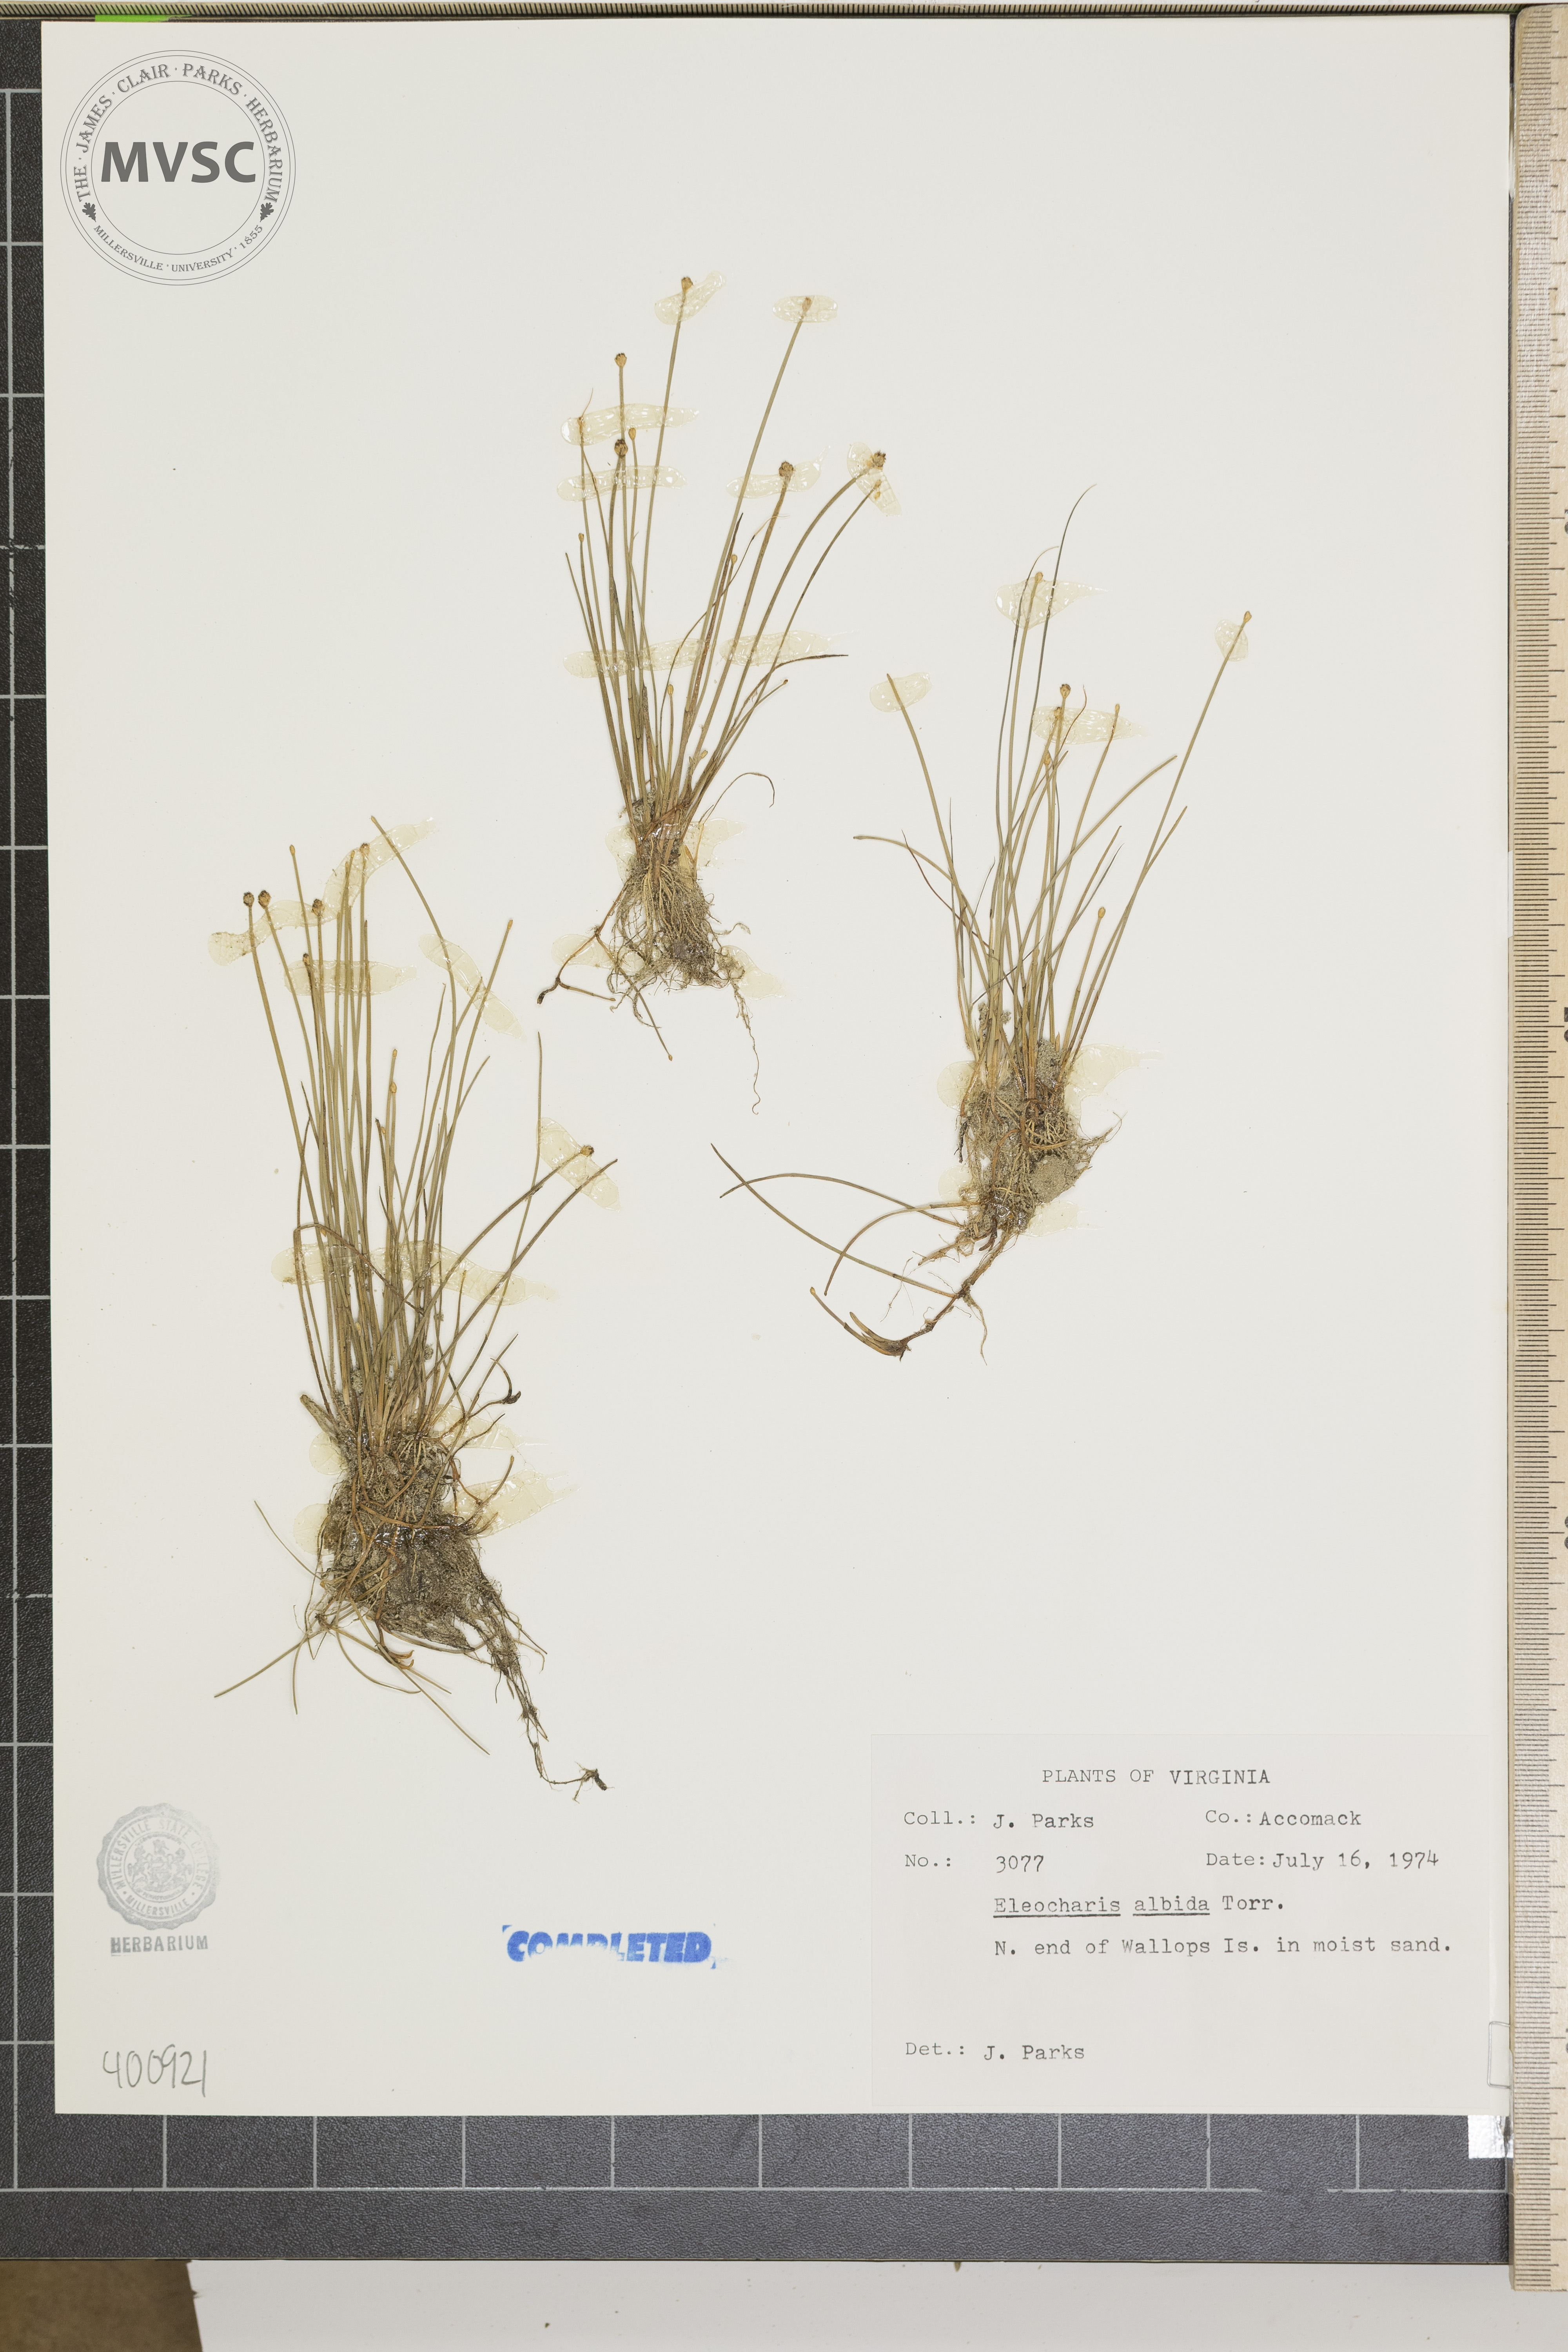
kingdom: Plantae
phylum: Tracheophyta
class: Liliopsida
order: Poales
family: Cyperaceae
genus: Eleocharis
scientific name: Eleocharis albida
